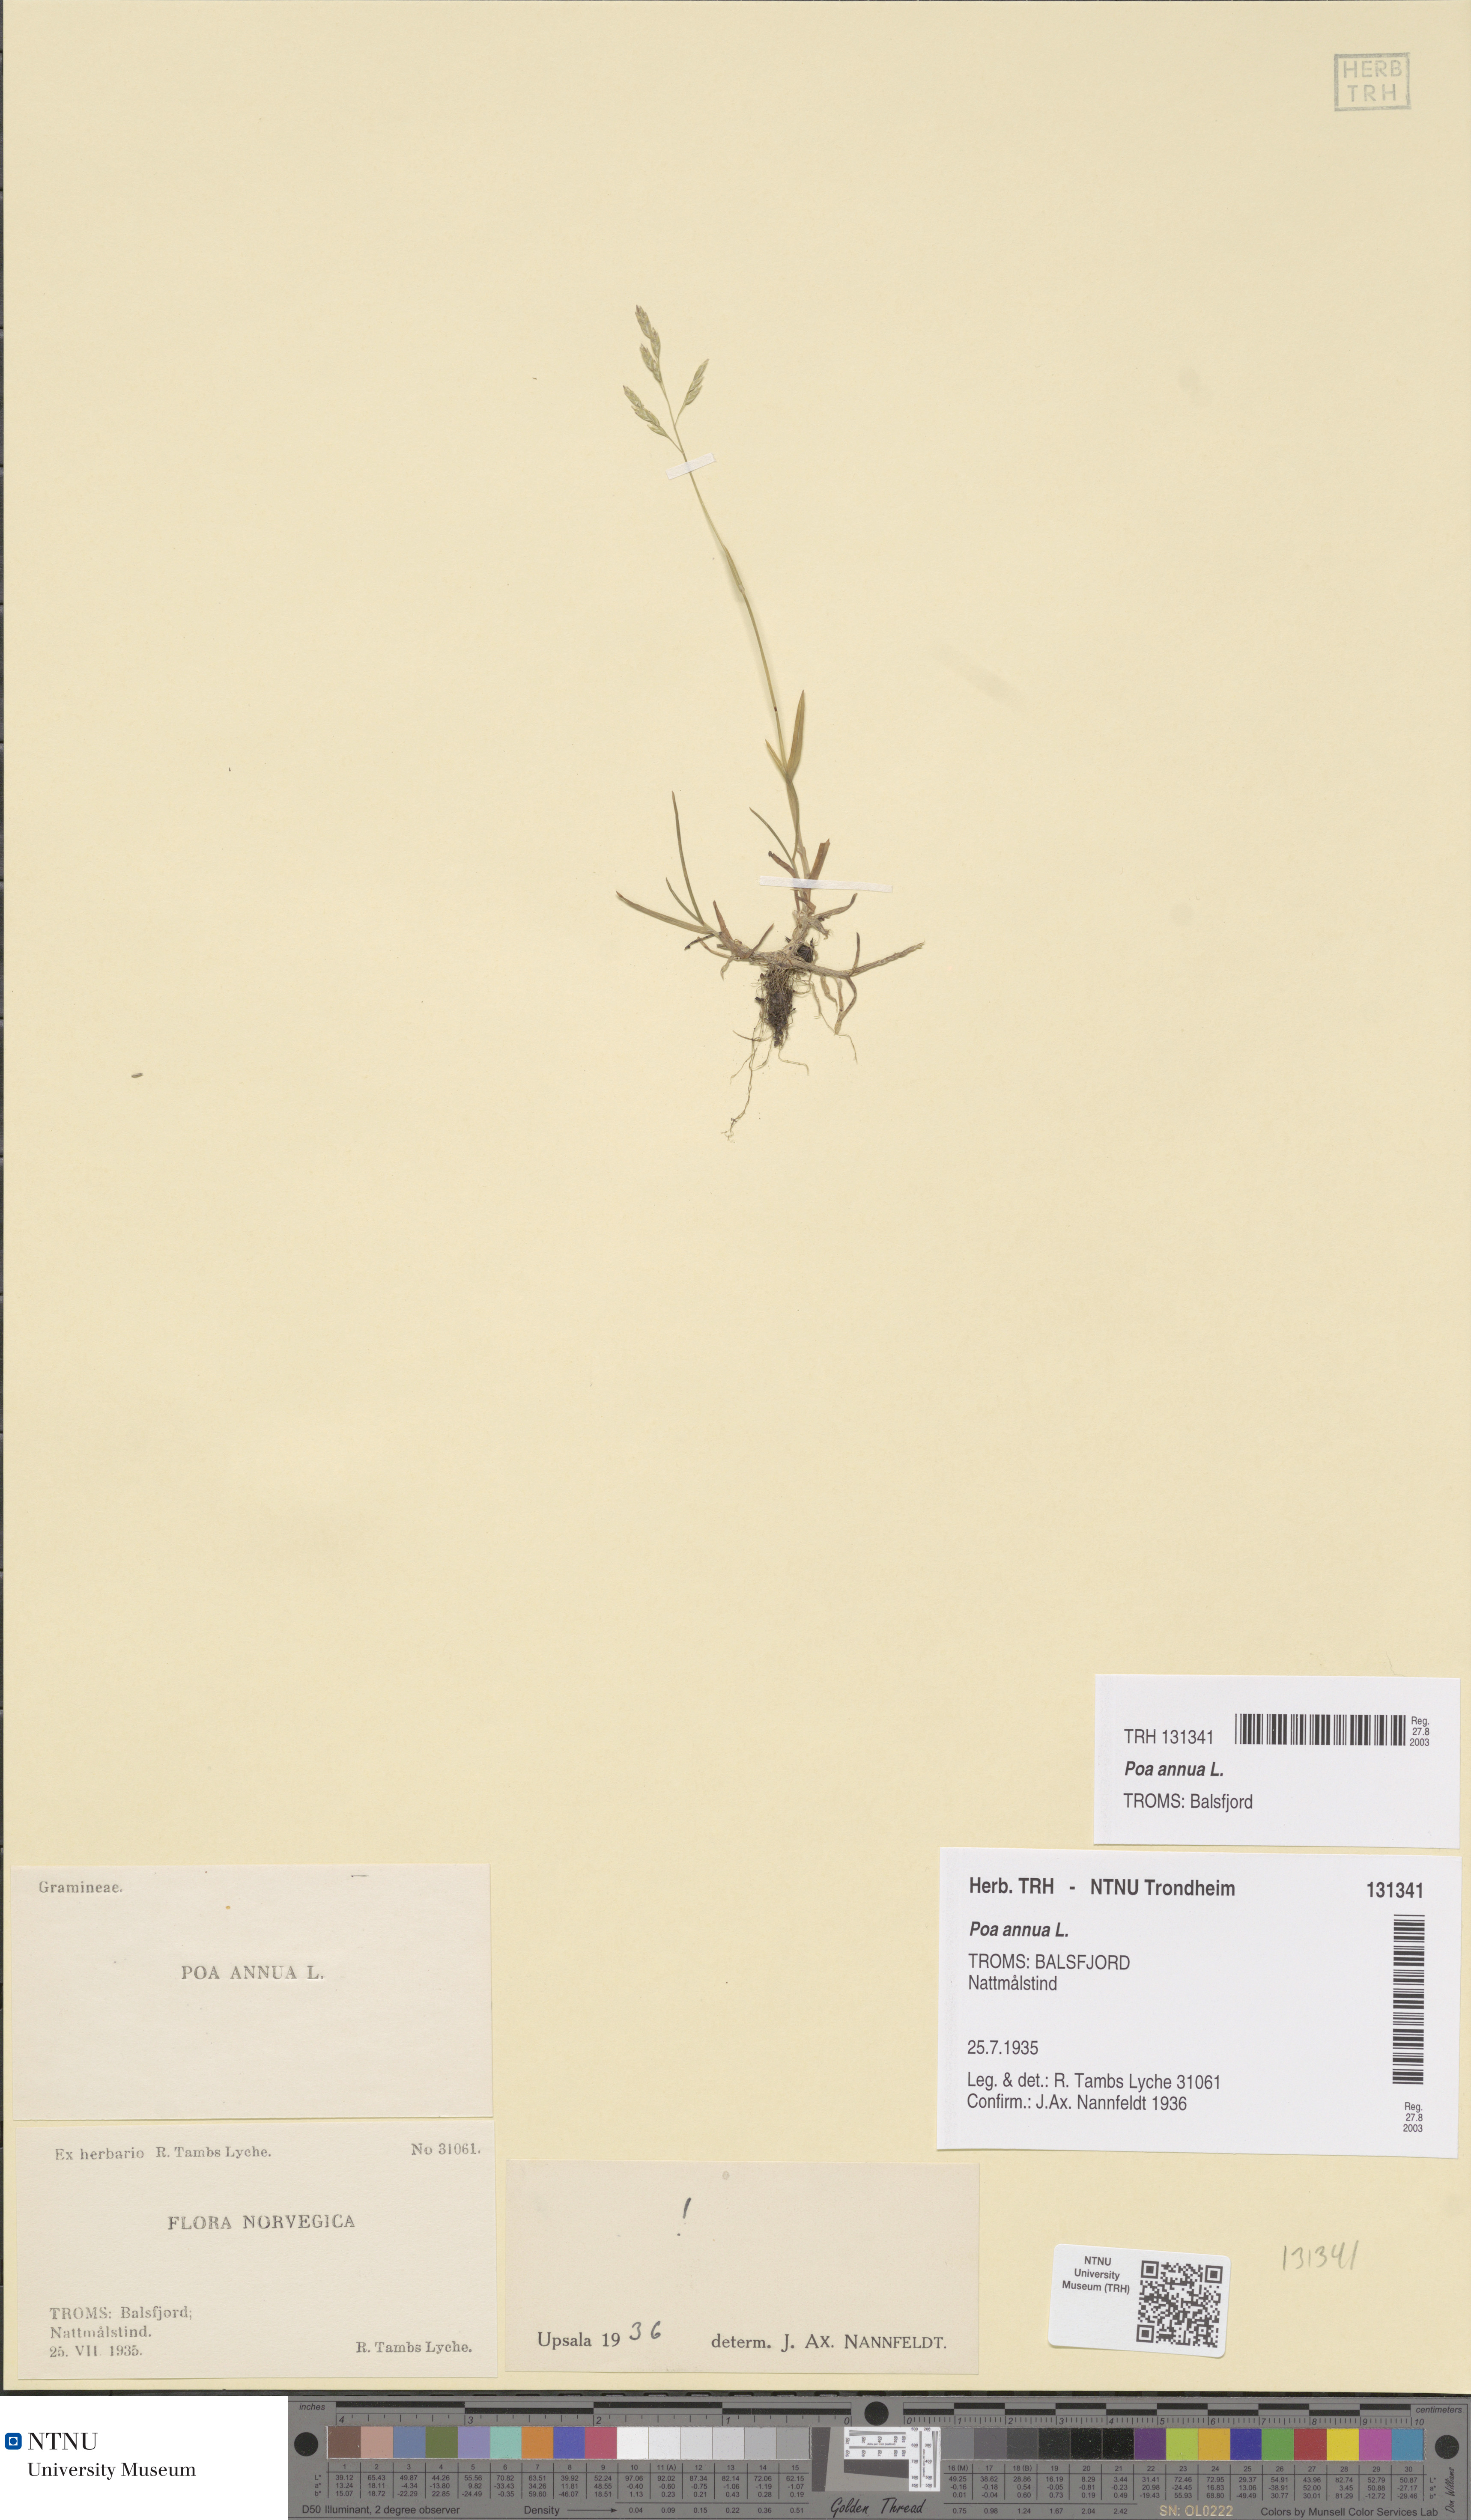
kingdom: Plantae
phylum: Tracheophyta
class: Liliopsida
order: Poales
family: Poaceae
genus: Poa
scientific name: Poa annua
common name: Annual bluegrass
